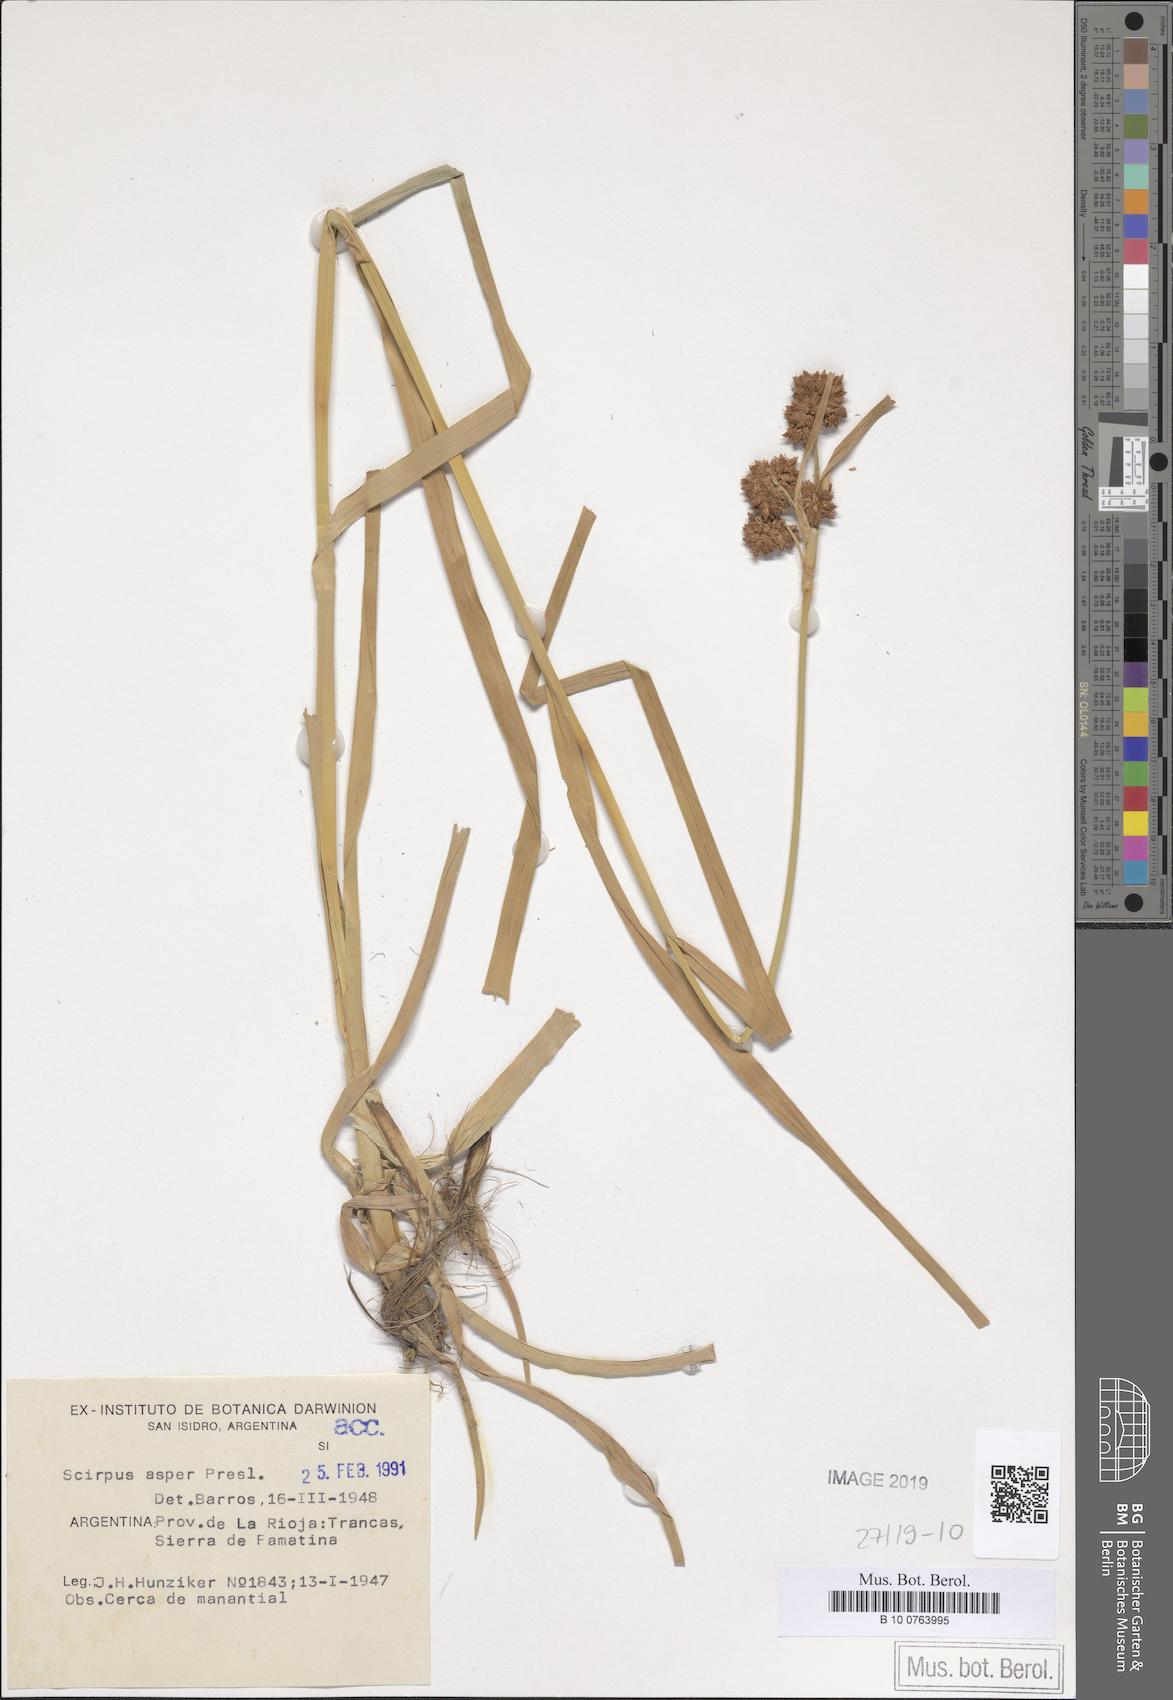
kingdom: Plantae
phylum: Tracheophyta
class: Liliopsida
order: Poales
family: Cyperaceae
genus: Rhodoscirpus
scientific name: Rhodoscirpus asper
